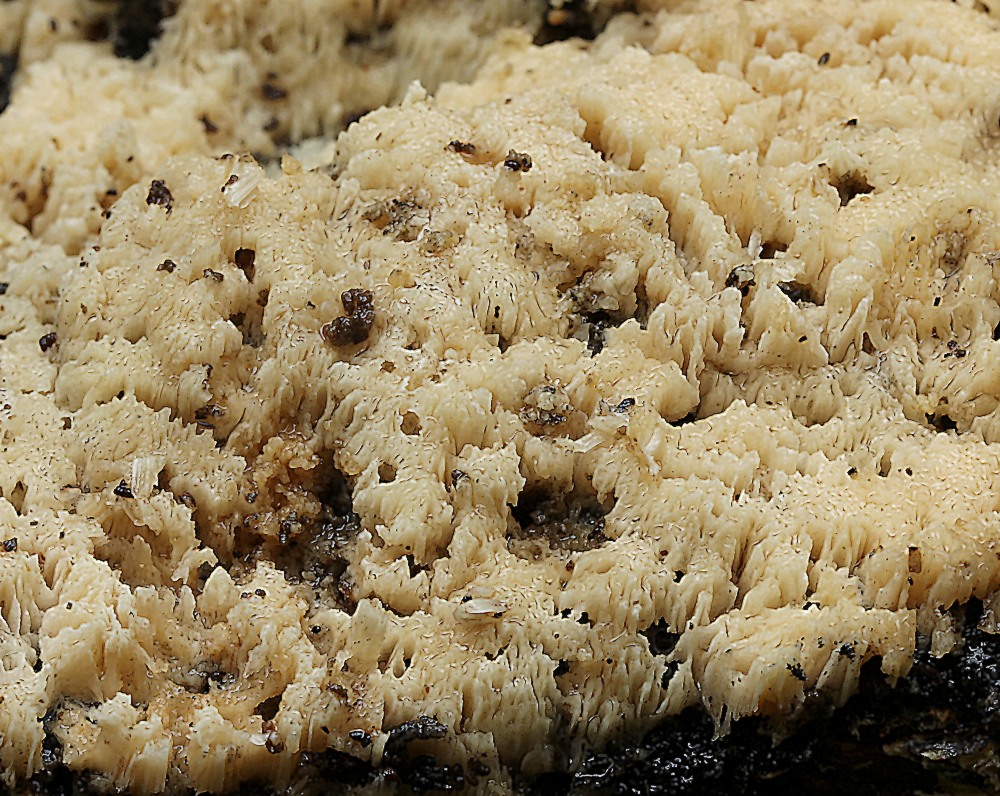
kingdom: Fungi
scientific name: Fungi
